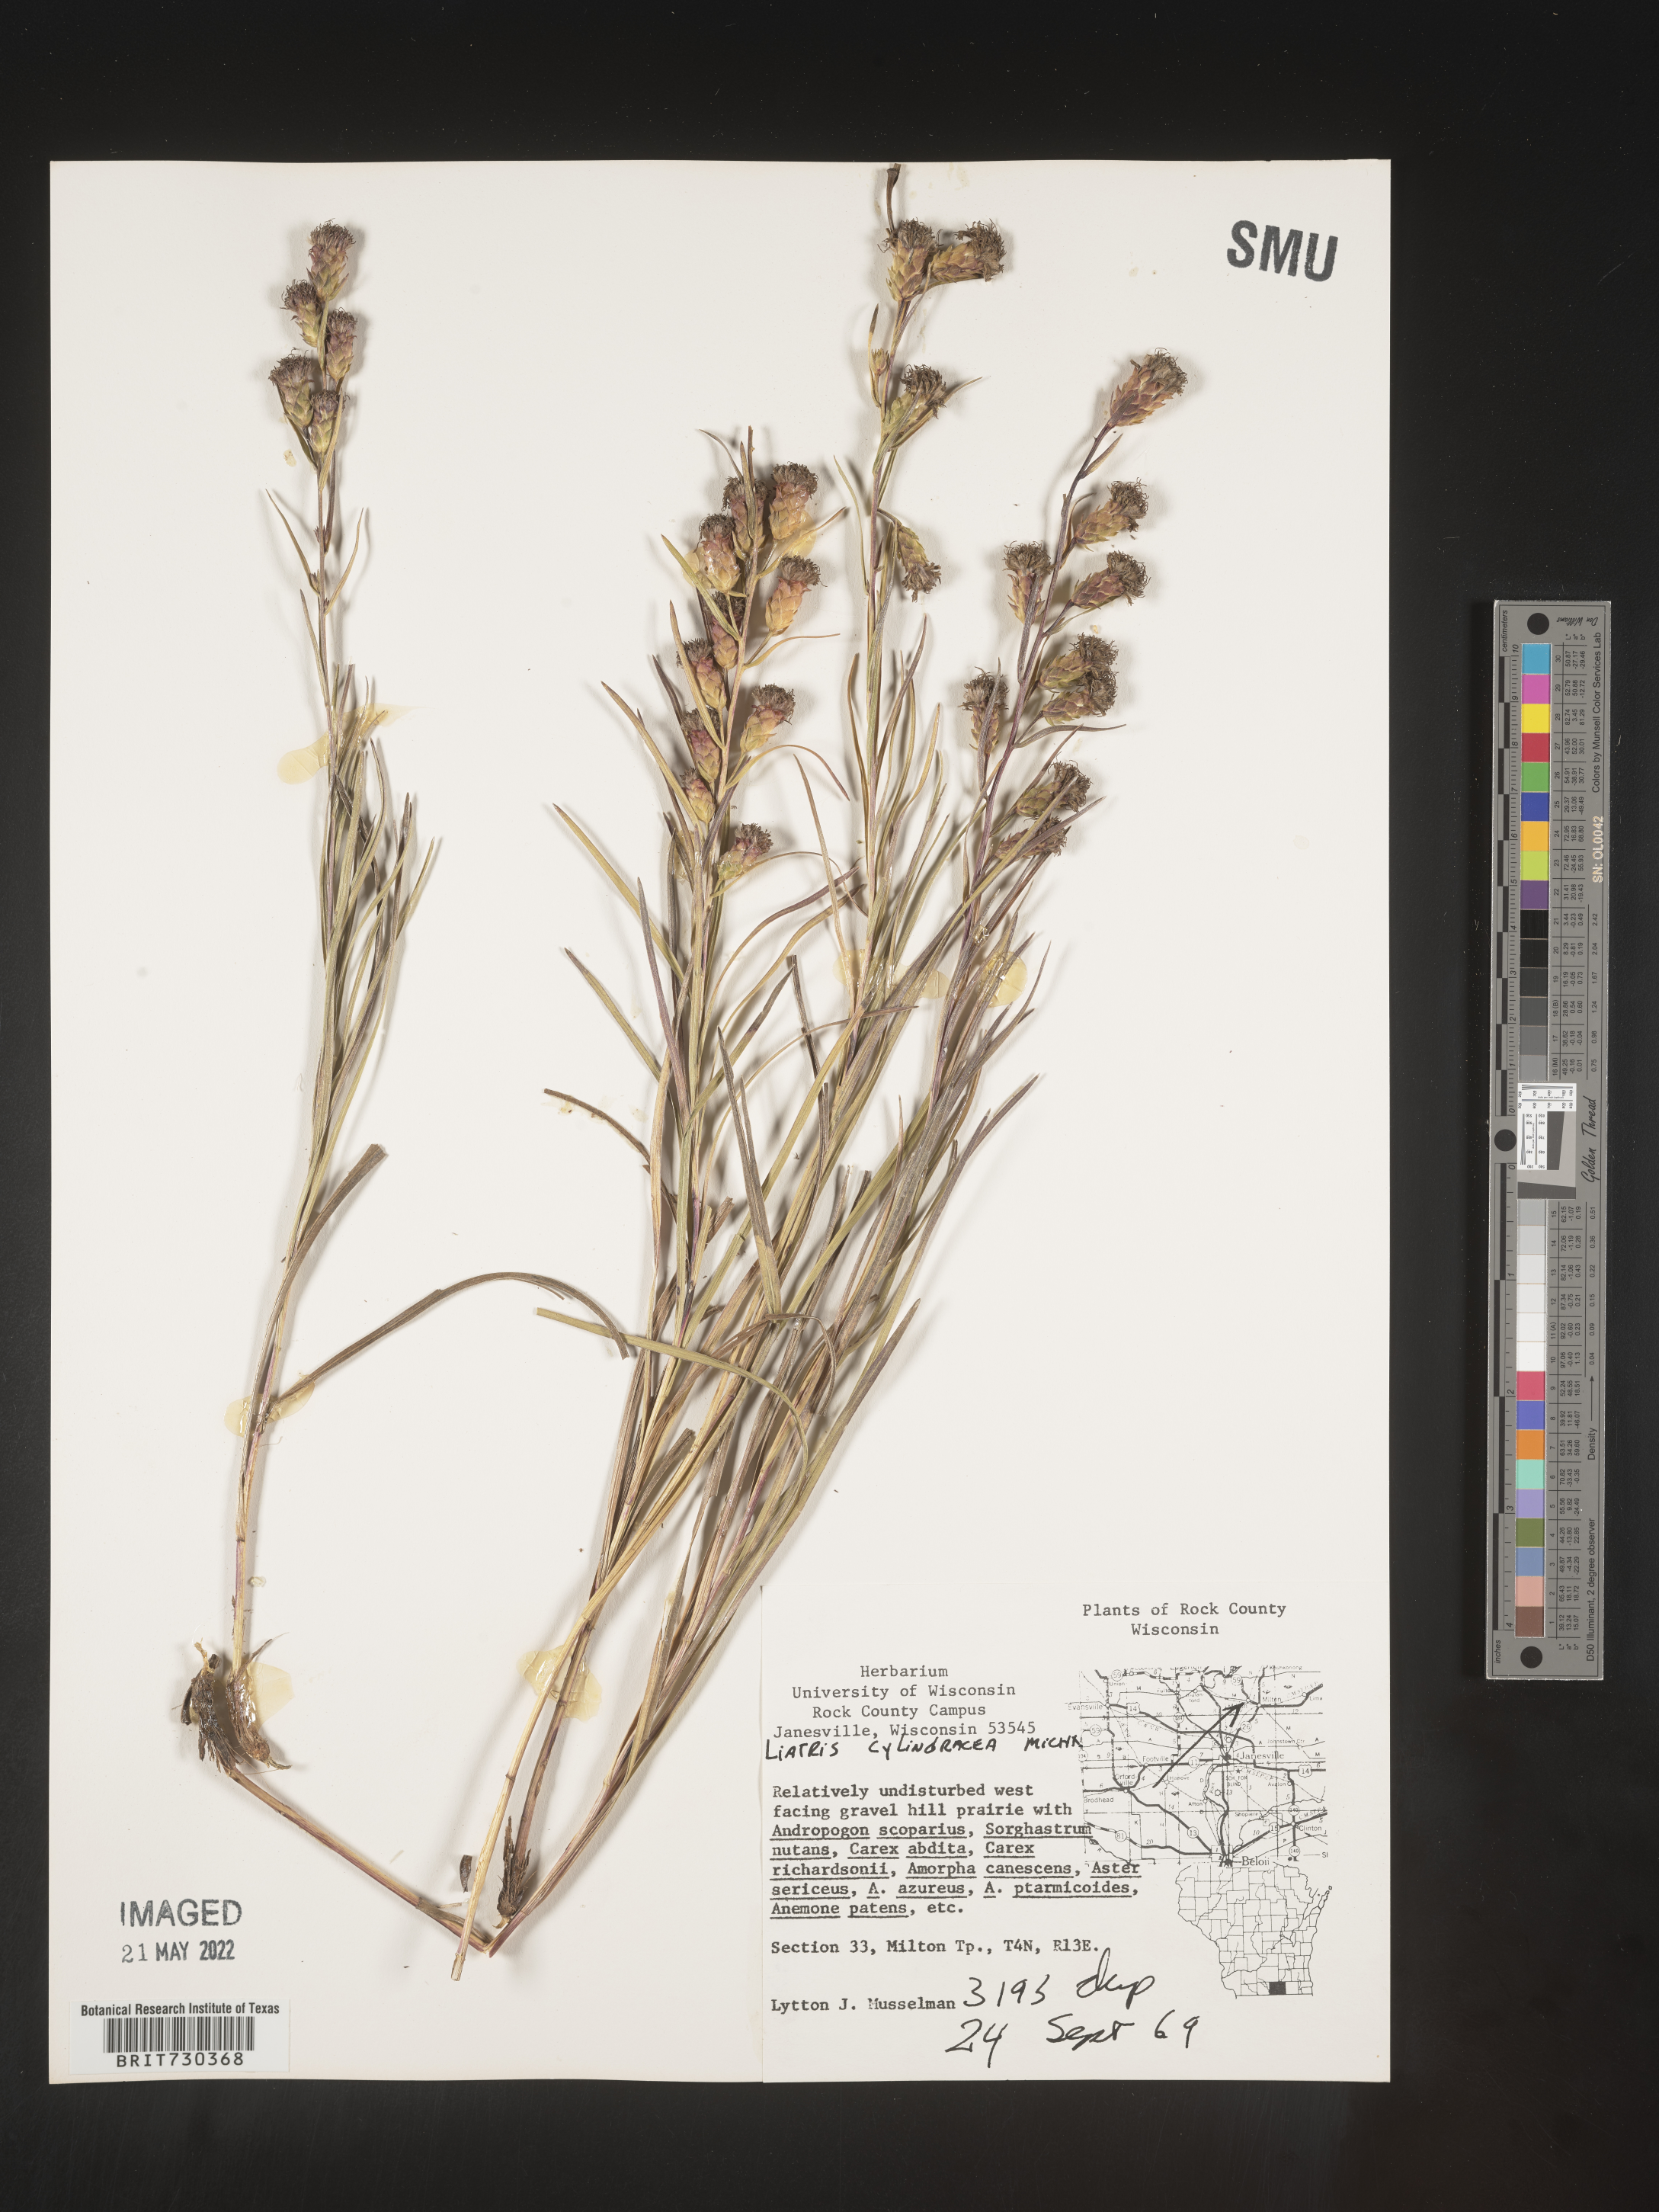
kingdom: Plantae
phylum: Tracheophyta
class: Magnoliopsida
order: Asterales
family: Asteraceae
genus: Liatris
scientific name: Liatris cylindracea
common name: Few-head blazingstar
